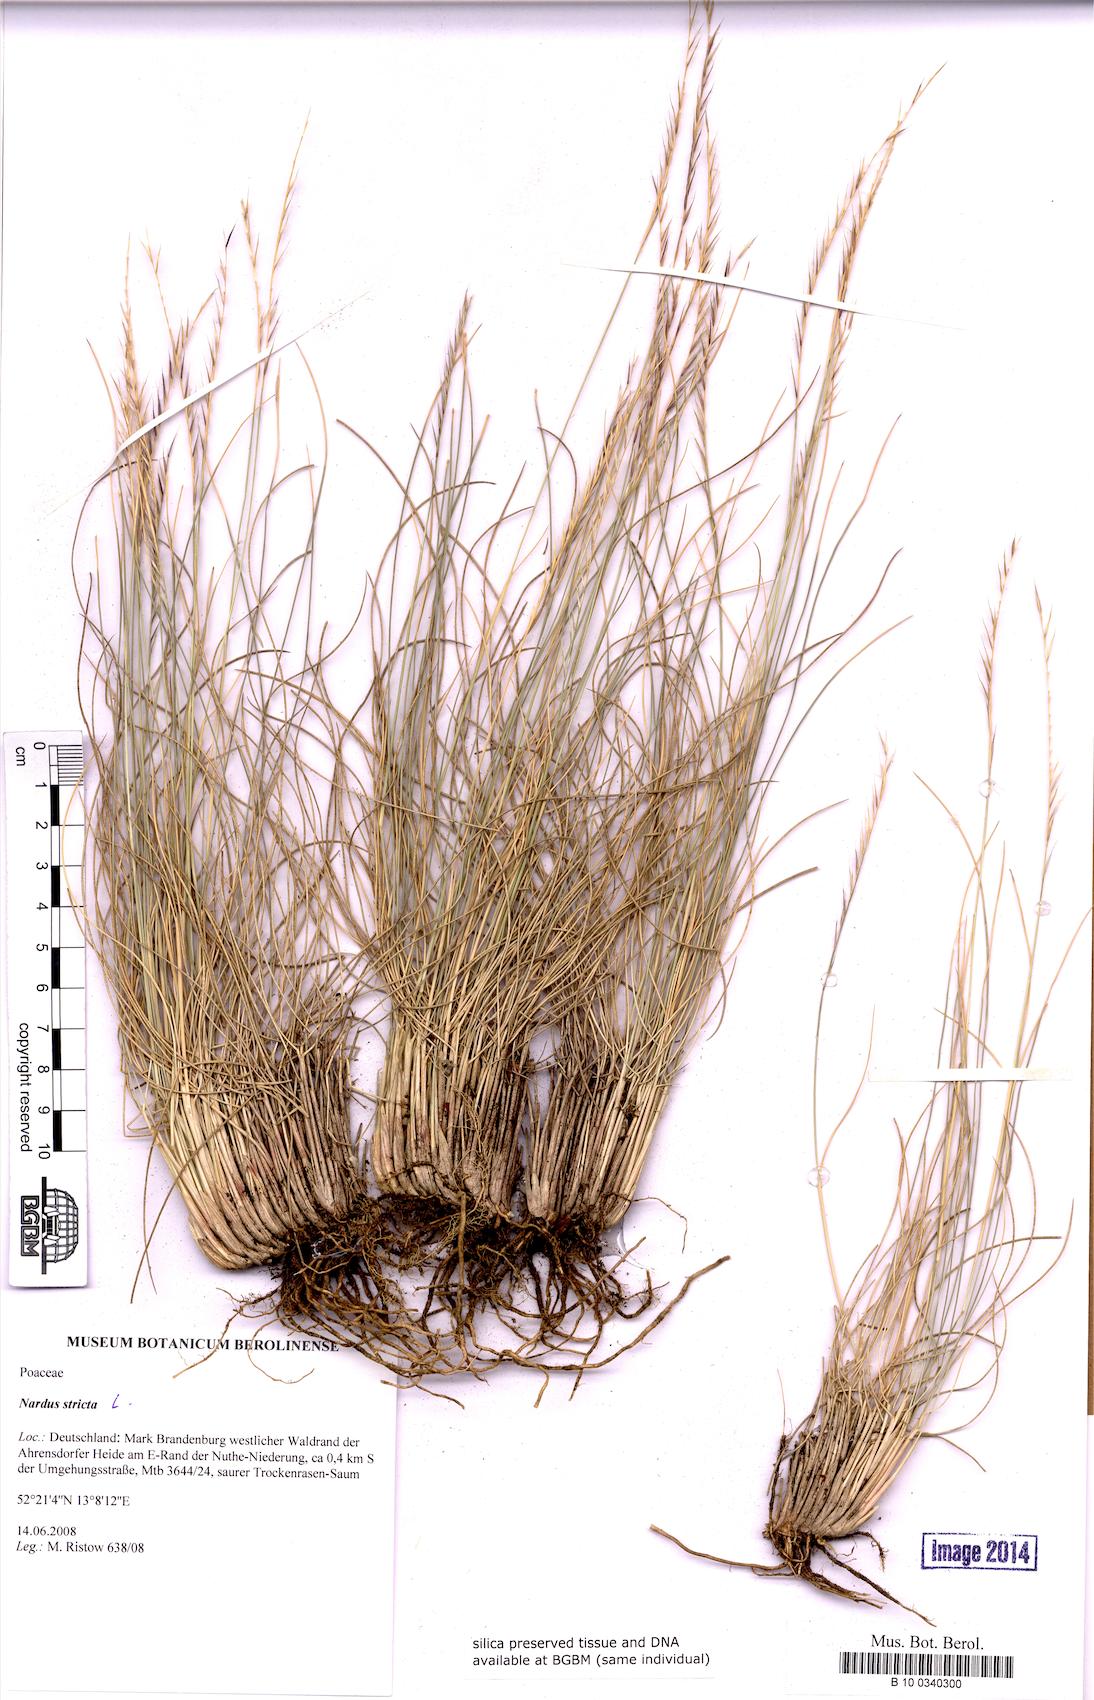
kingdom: Plantae
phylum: Tracheophyta
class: Liliopsida
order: Poales
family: Poaceae
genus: Nardus
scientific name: Nardus stricta
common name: Mat-grass
